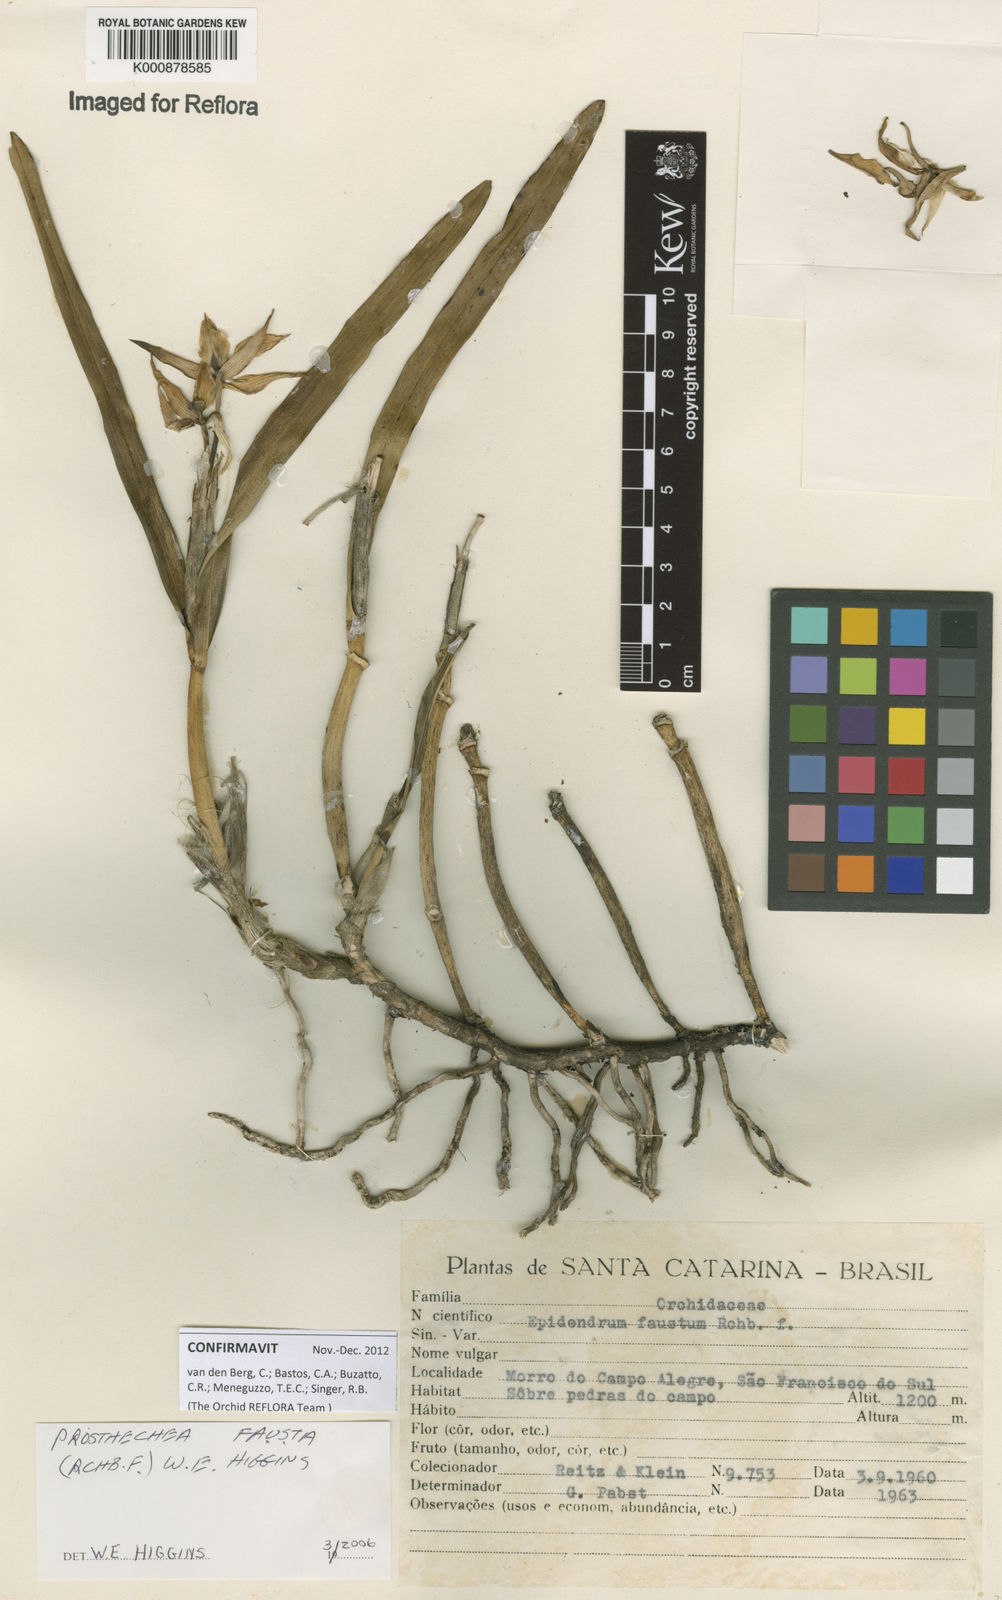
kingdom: Plantae
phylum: Tracheophyta
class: Liliopsida
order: Asparagales
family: Orchidaceae
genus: Prosthechea
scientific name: Prosthechea fausta
